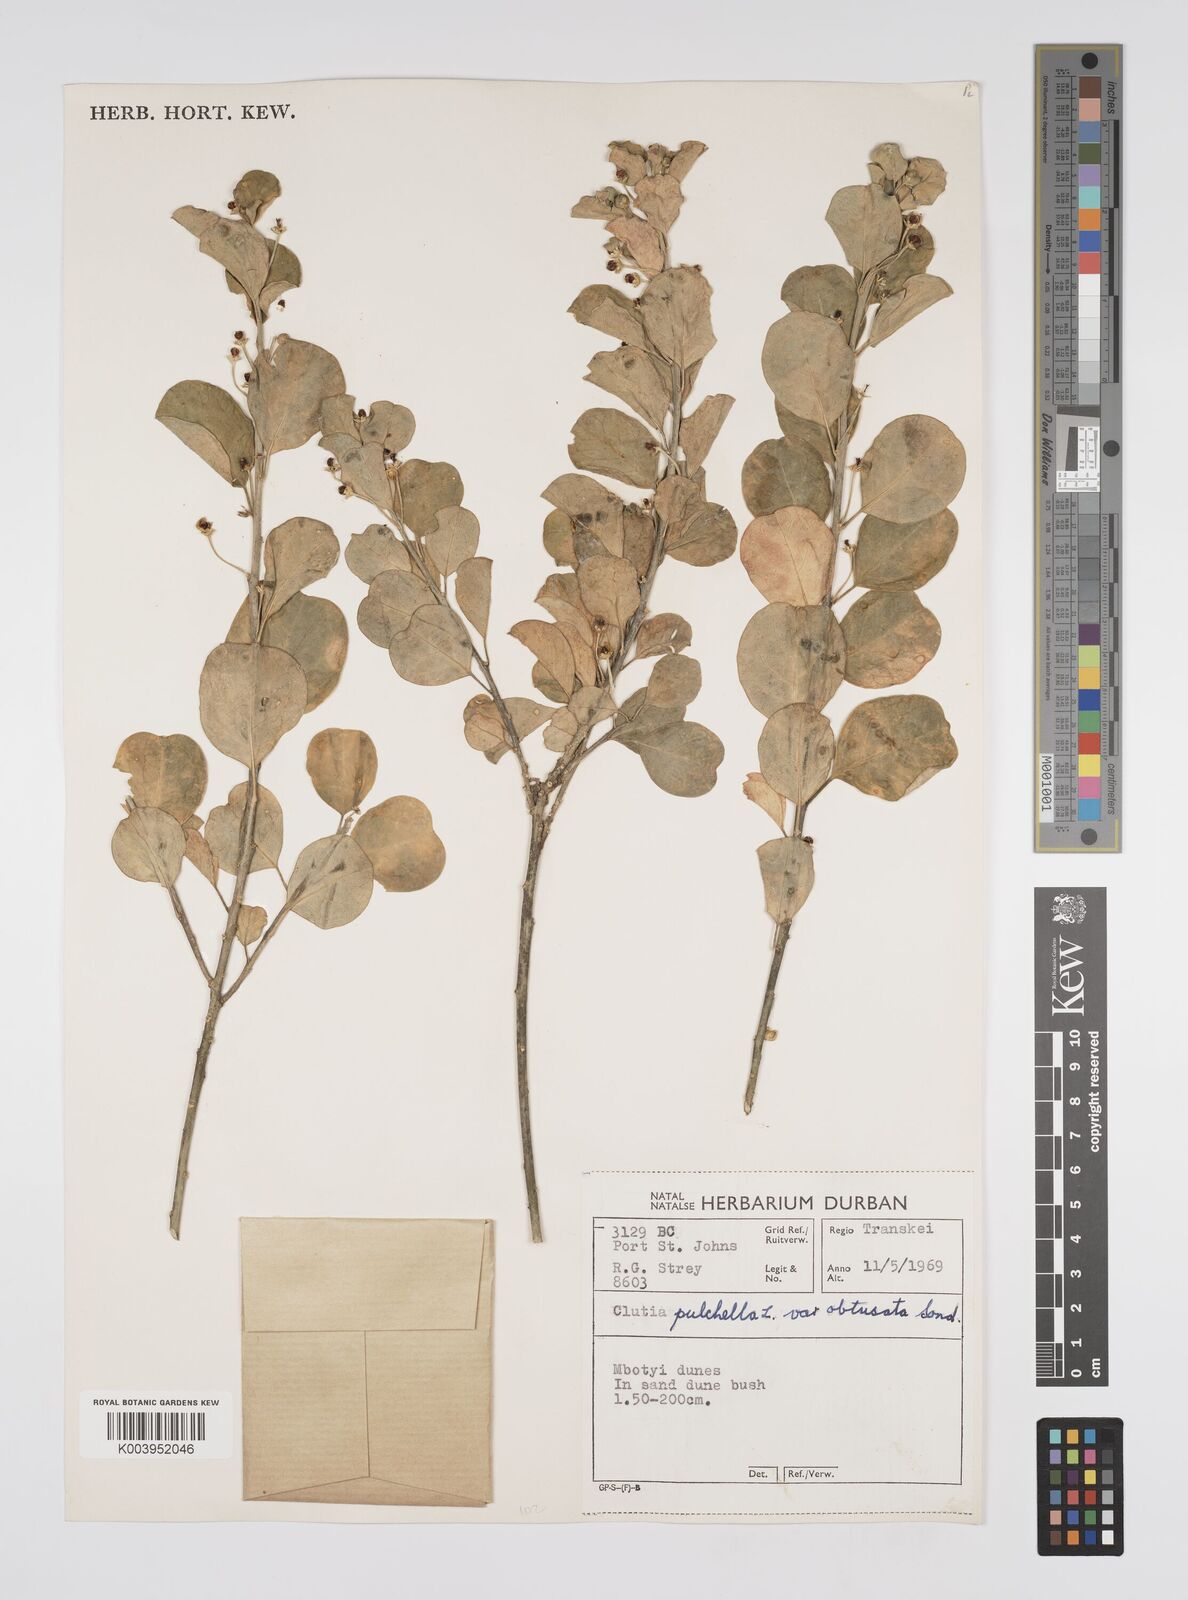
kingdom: Plantae
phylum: Tracheophyta
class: Magnoliopsida
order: Malpighiales
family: Peraceae
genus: Clutia
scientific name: Clutia pulchella
